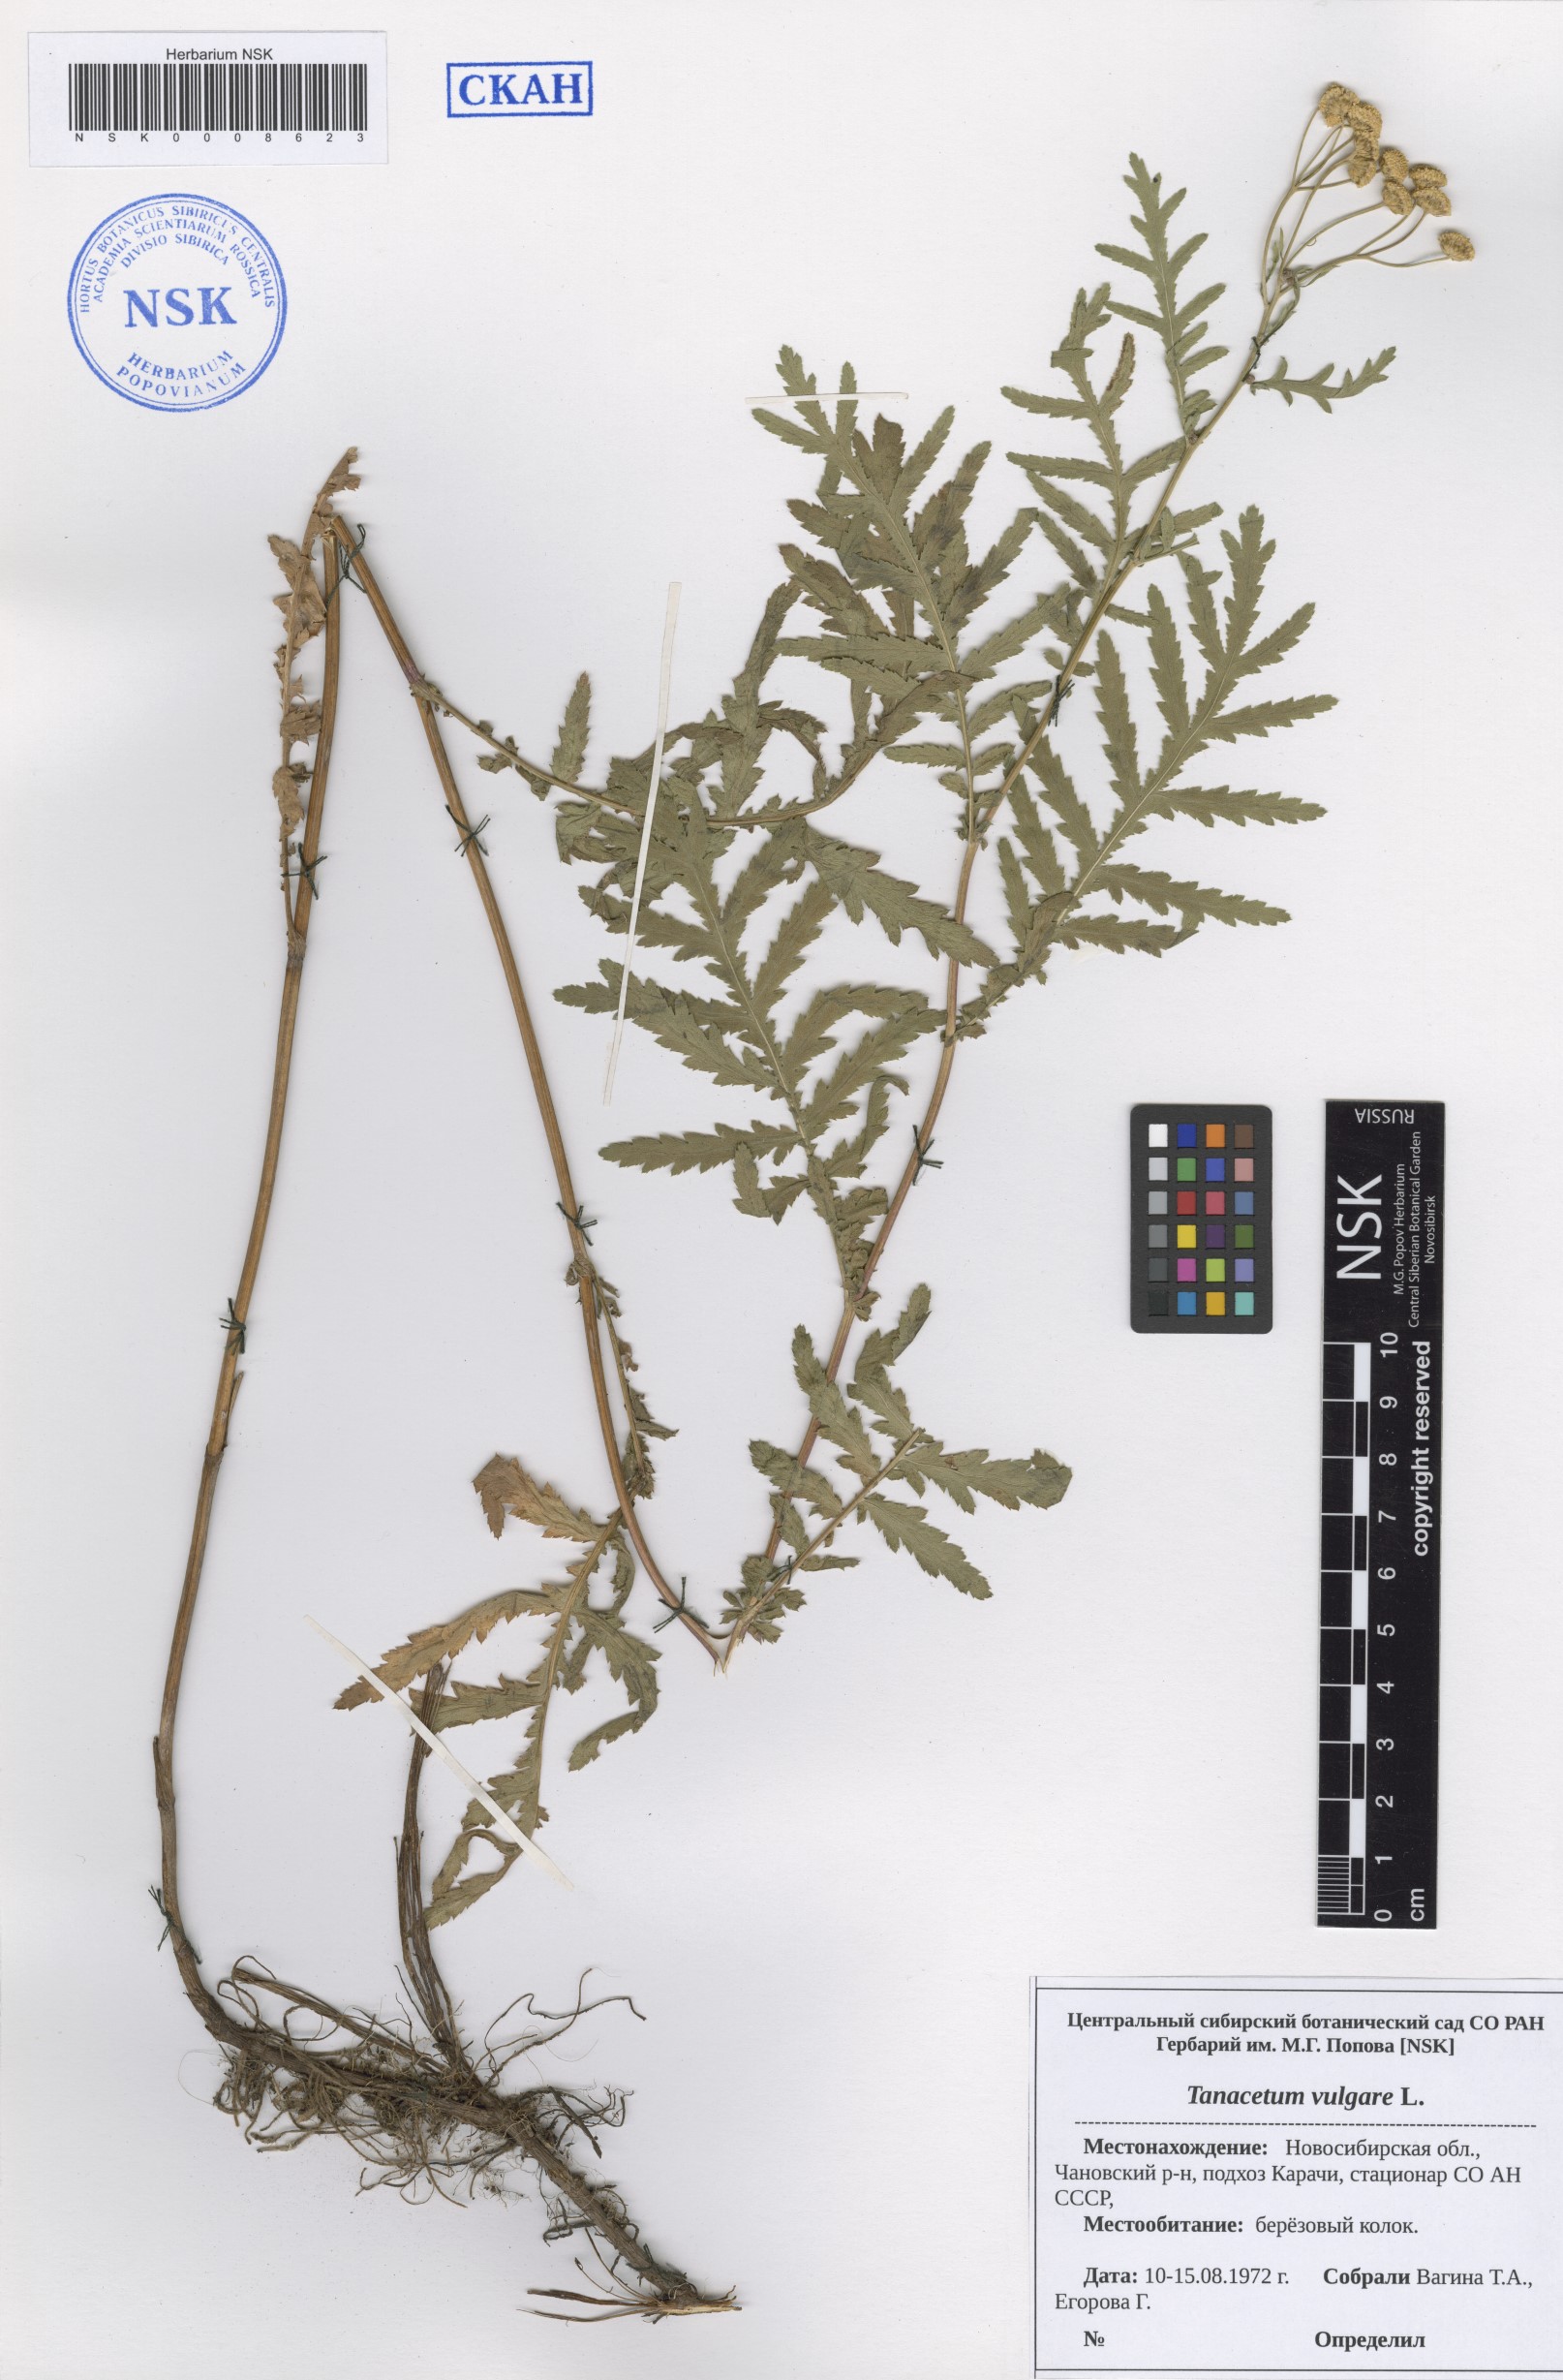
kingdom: Plantae
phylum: Tracheophyta
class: Magnoliopsida
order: Asterales
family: Asteraceae
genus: Tanacetum
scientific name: Tanacetum vulgare
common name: Common tansy
